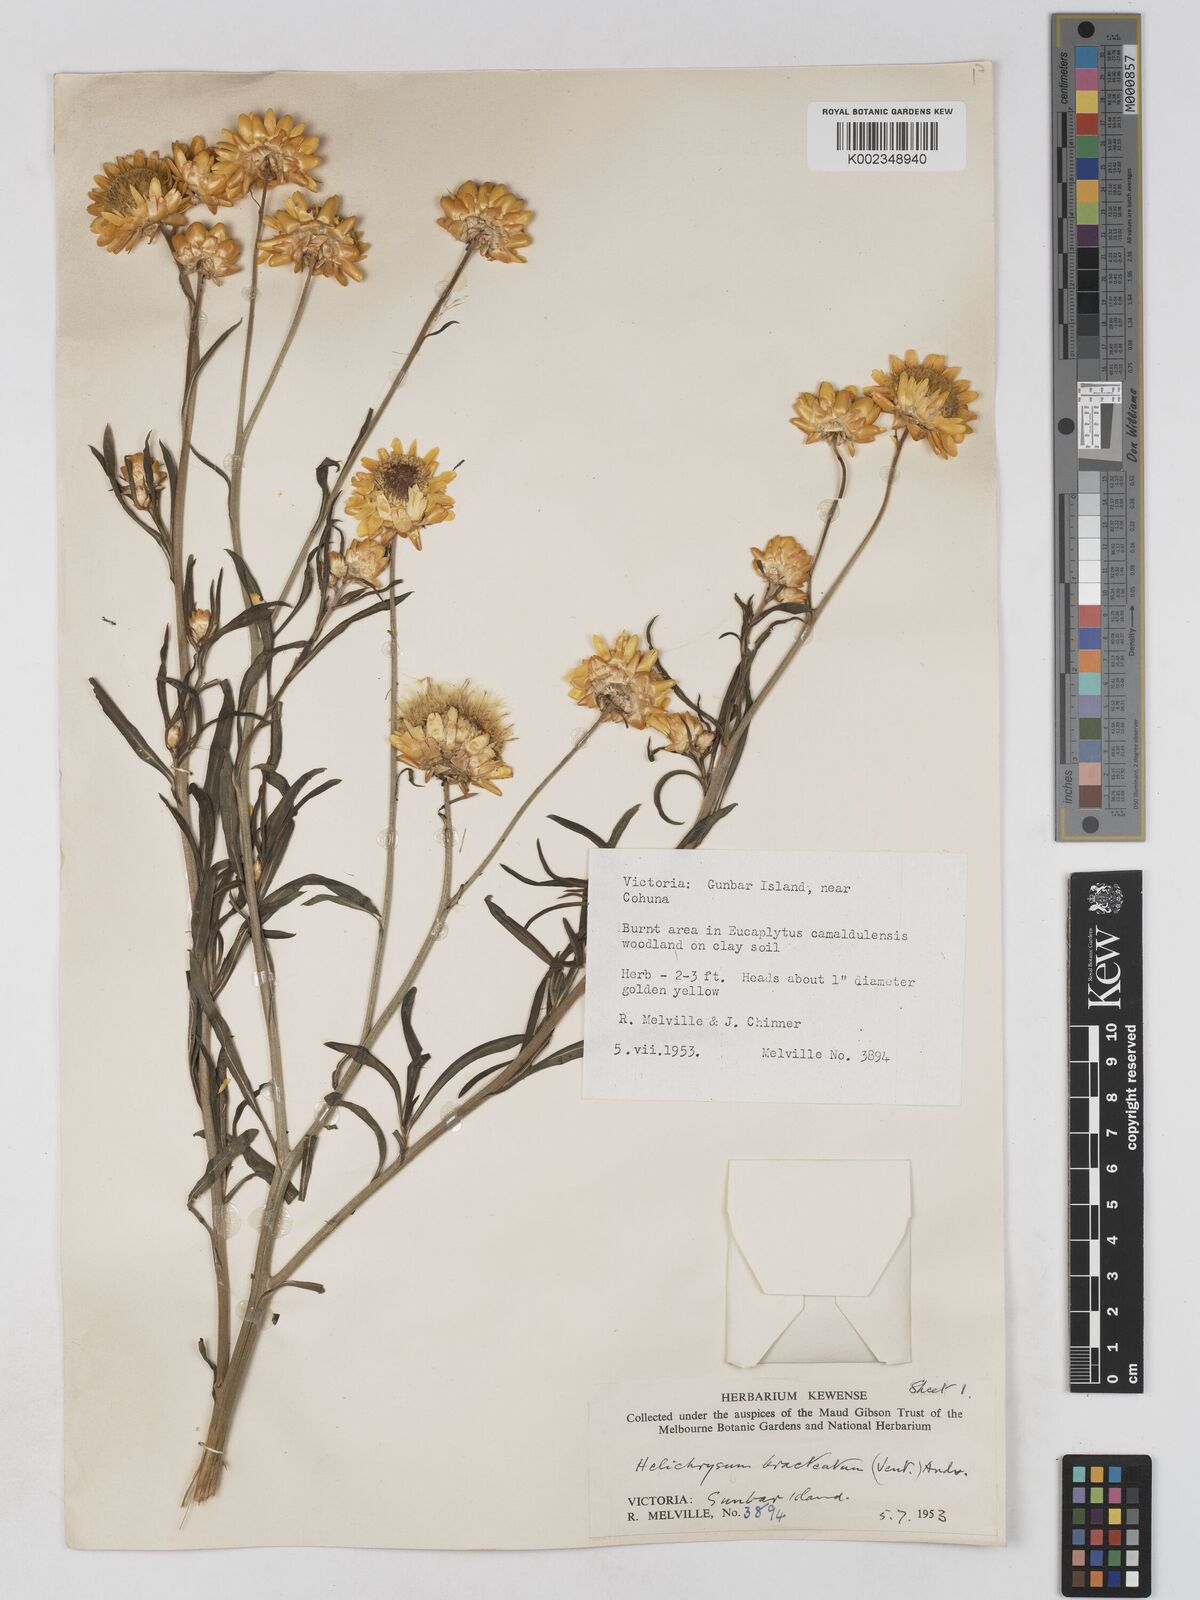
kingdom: Plantae
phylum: Tracheophyta
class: Magnoliopsida
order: Asterales
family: Asteraceae
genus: Xerochrysum
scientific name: Xerochrysum bracteatum
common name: Bracted strawflower
